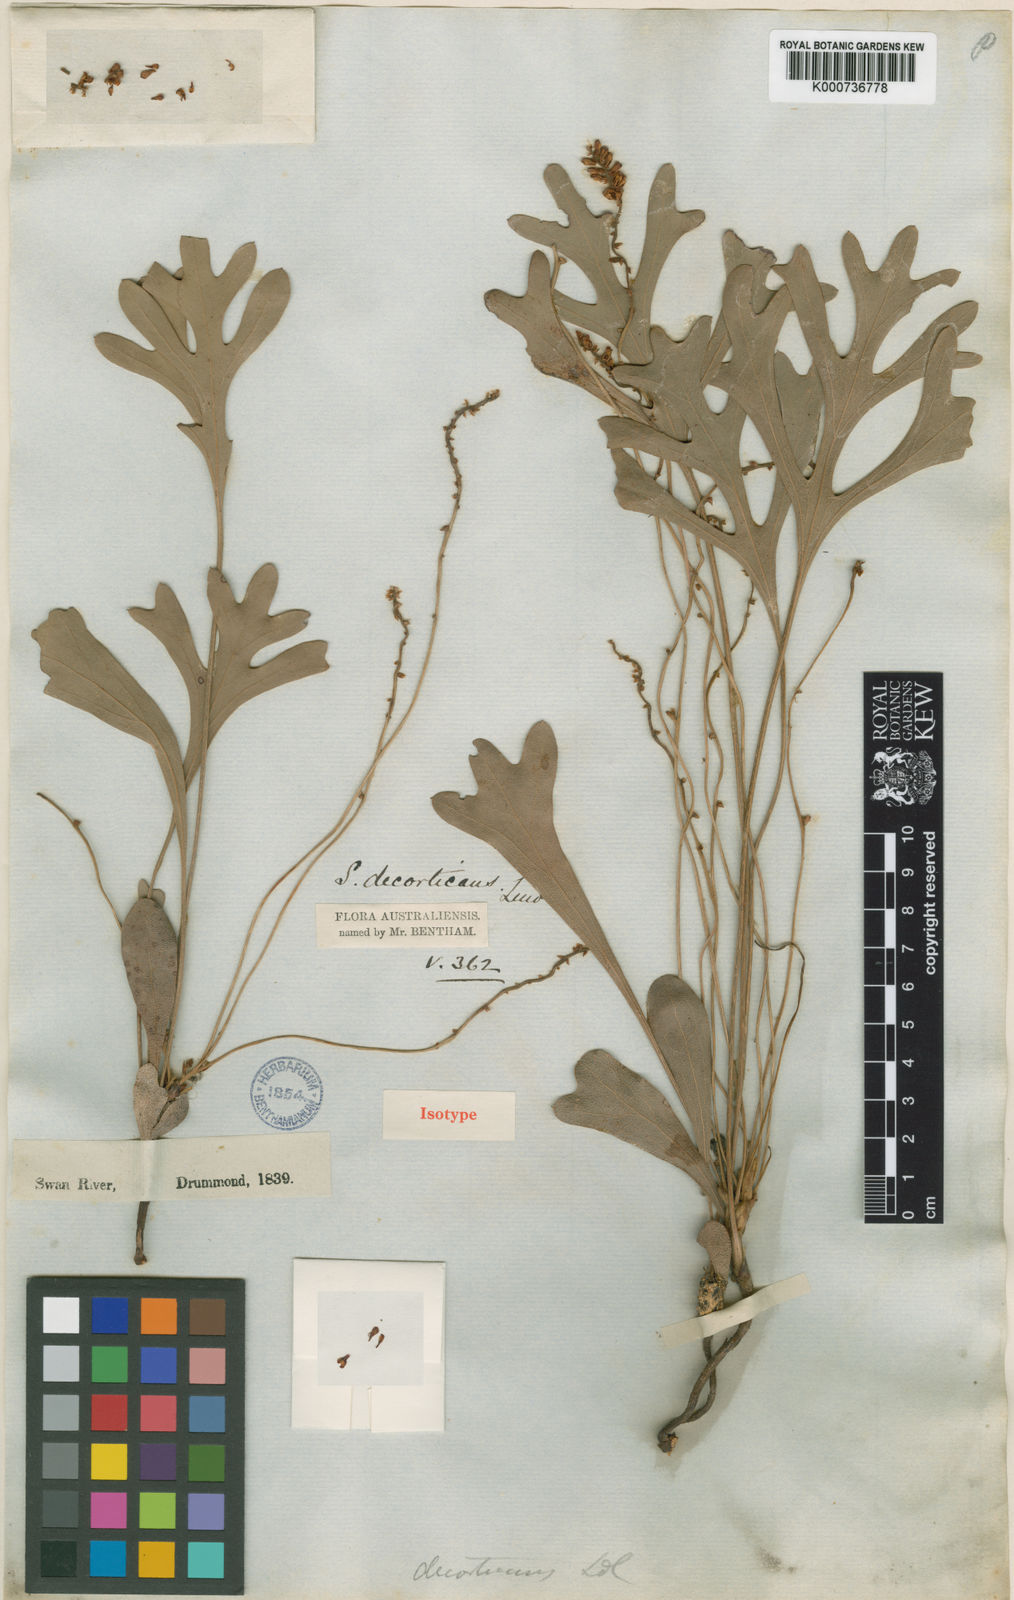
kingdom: Plantae
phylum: Tracheophyta
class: Magnoliopsida
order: Proteales
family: Proteaceae
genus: Synaphea
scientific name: Synaphea decorticans
